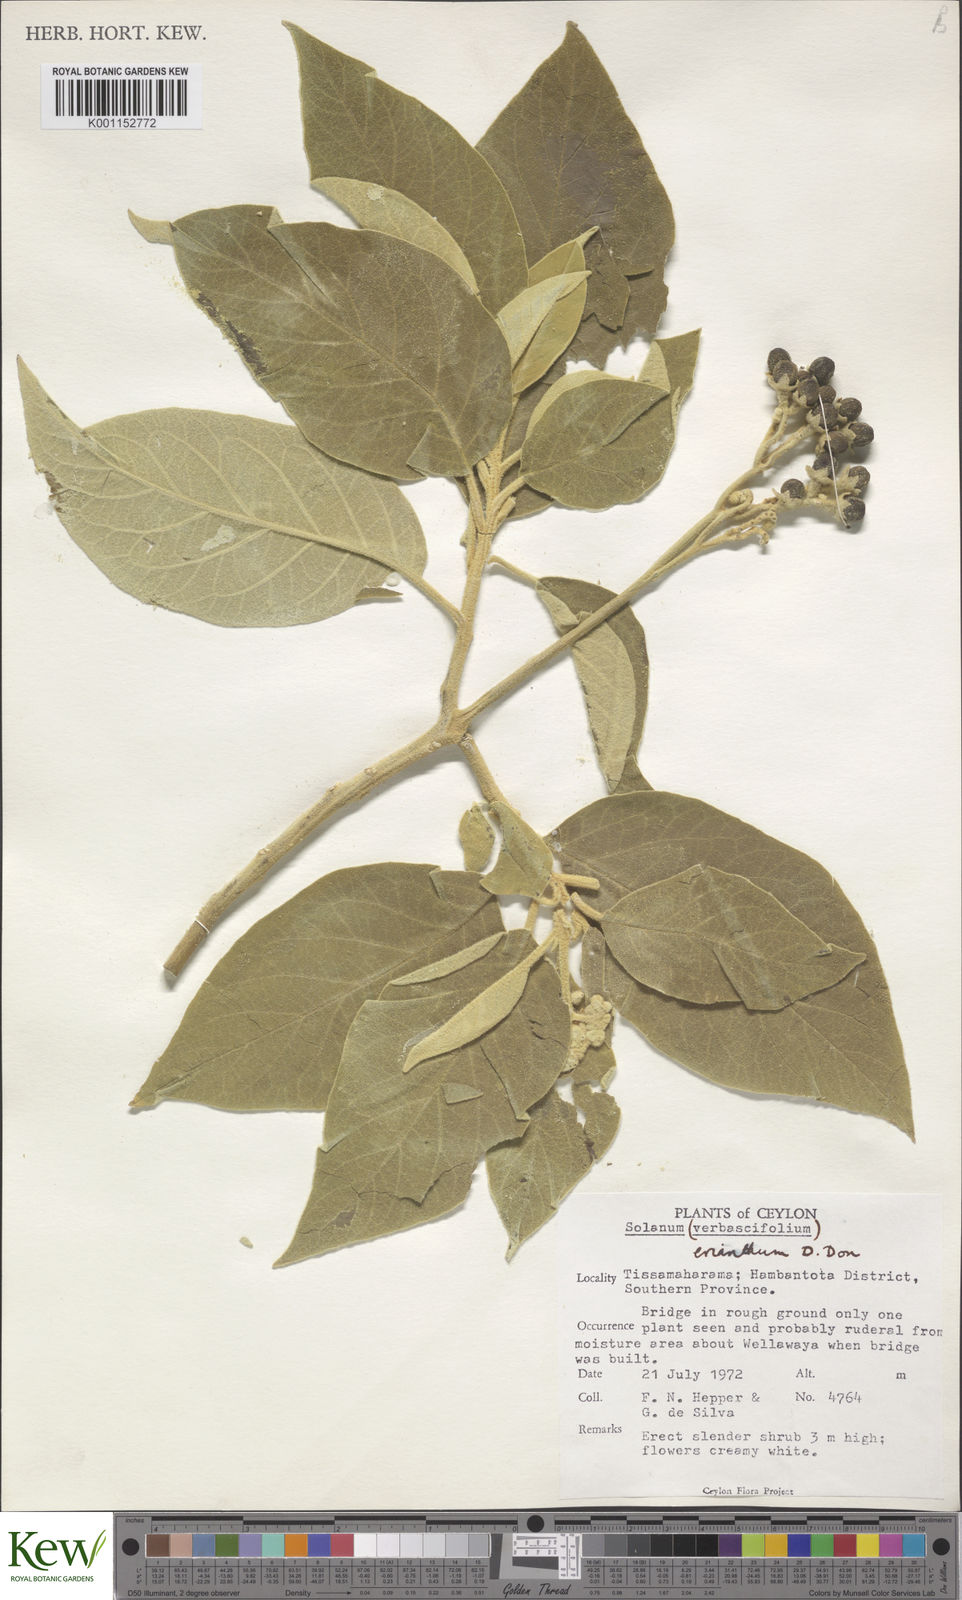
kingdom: Plantae
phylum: Tracheophyta
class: Magnoliopsida
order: Solanales
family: Solanaceae
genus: Solanum
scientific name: Solanum erianthum
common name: Tobacco-tree
